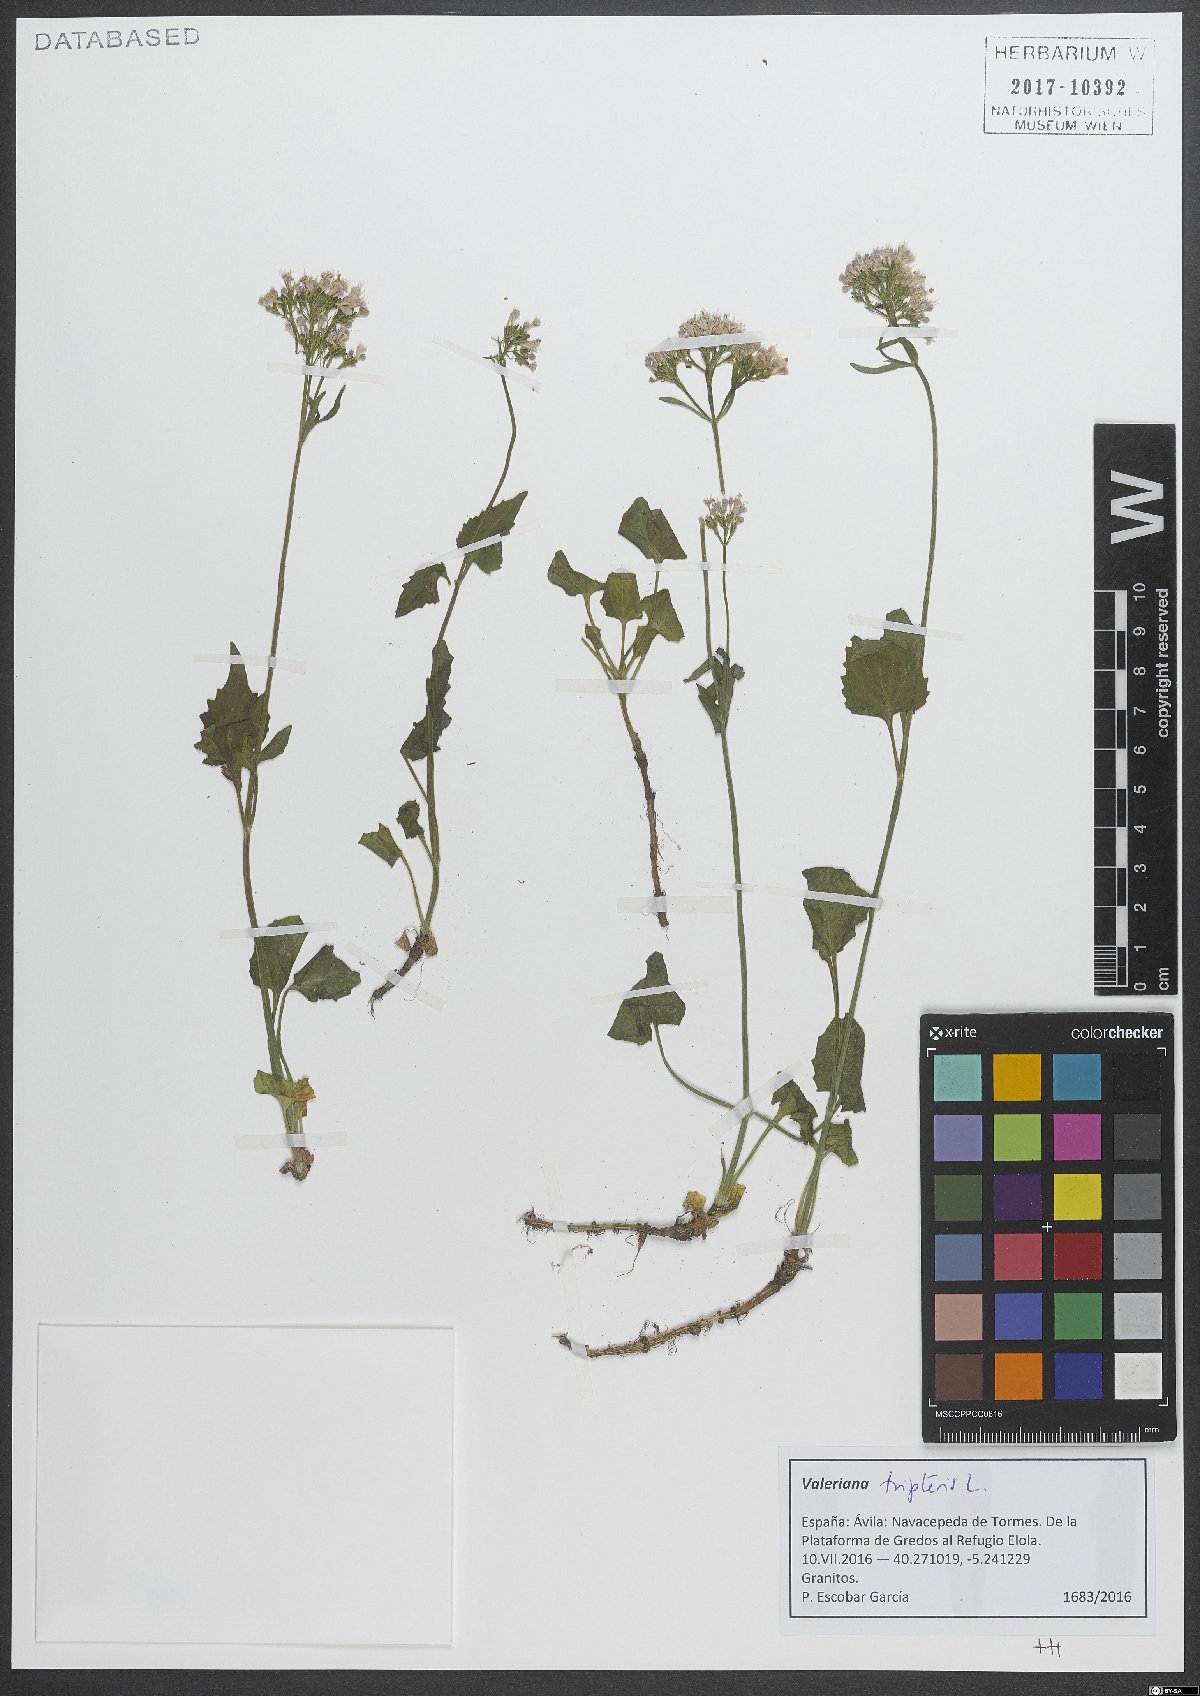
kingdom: Plantae
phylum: Tracheophyta
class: Magnoliopsida
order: Dipsacales
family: Caprifoliaceae
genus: Valeriana
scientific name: Valeriana tripteris
